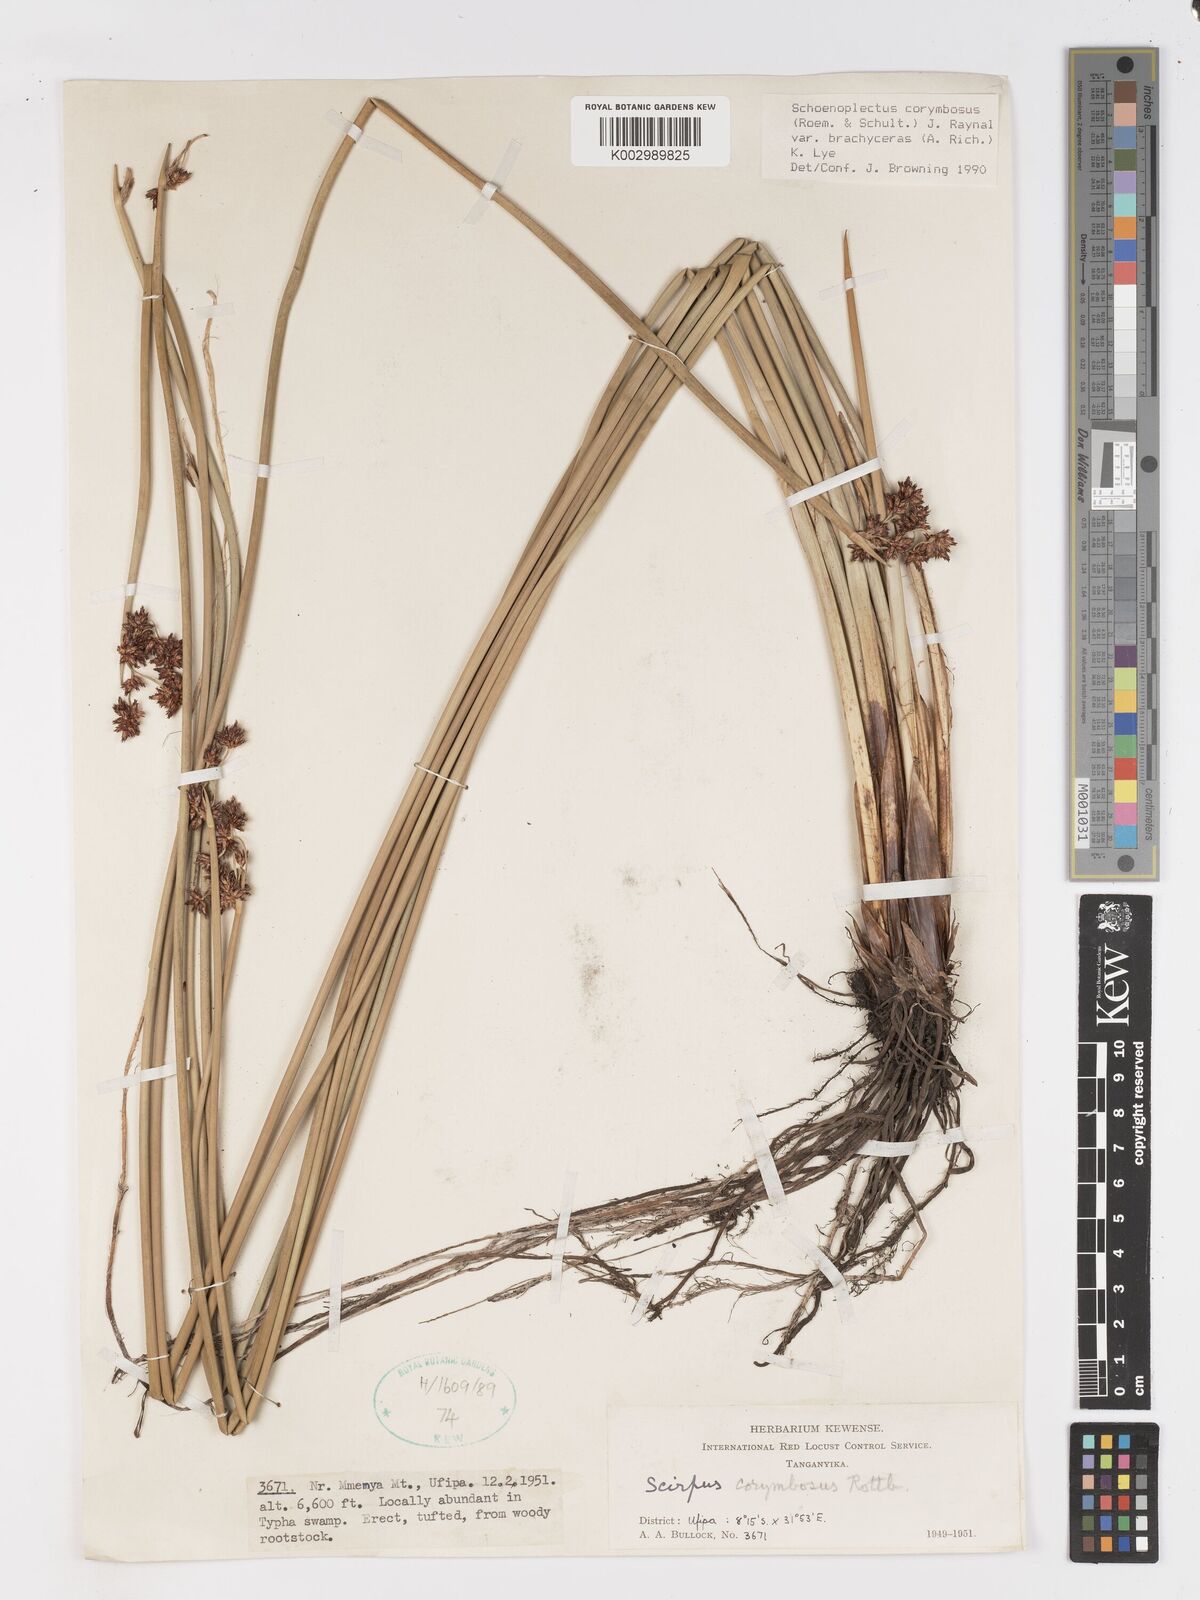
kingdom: Plantae
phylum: Tracheophyta
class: Liliopsida
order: Poales
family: Cyperaceae
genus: Schoenoplectiella
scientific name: Schoenoplectiella brachyceras
